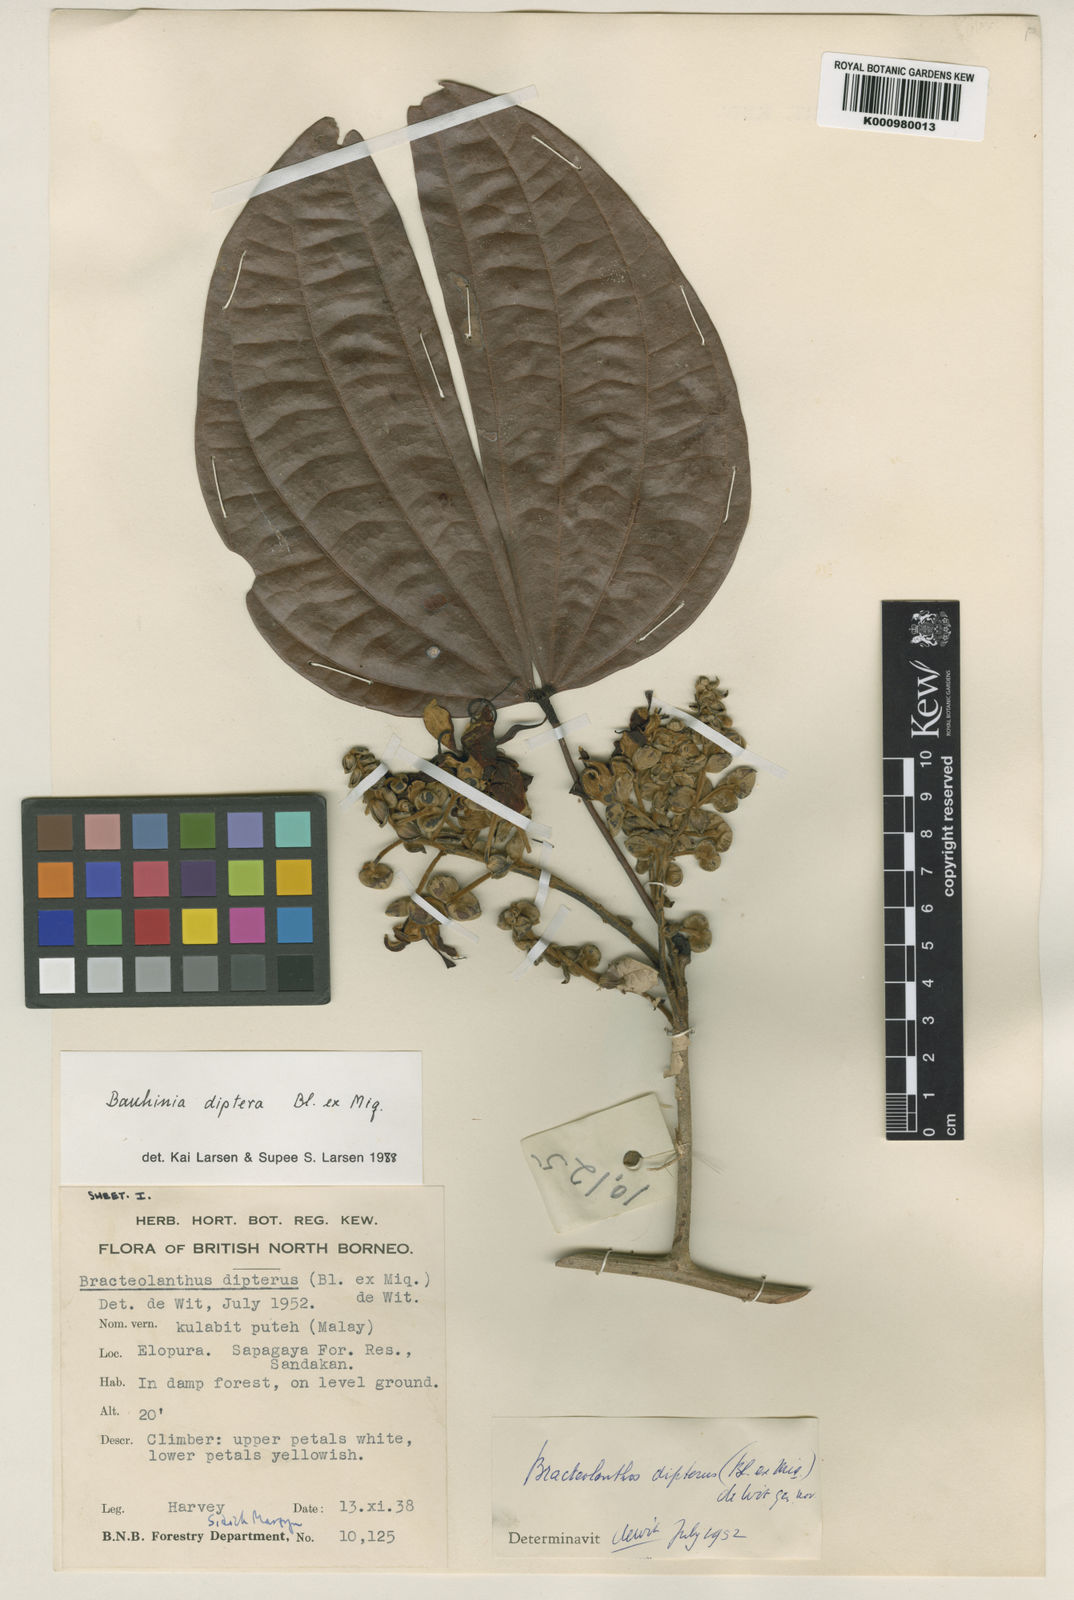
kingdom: Plantae
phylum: Tracheophyta
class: Magnoliopsida
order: Fabales
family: Fabaceae
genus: Bauhinia
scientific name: Bauhinia diptera
